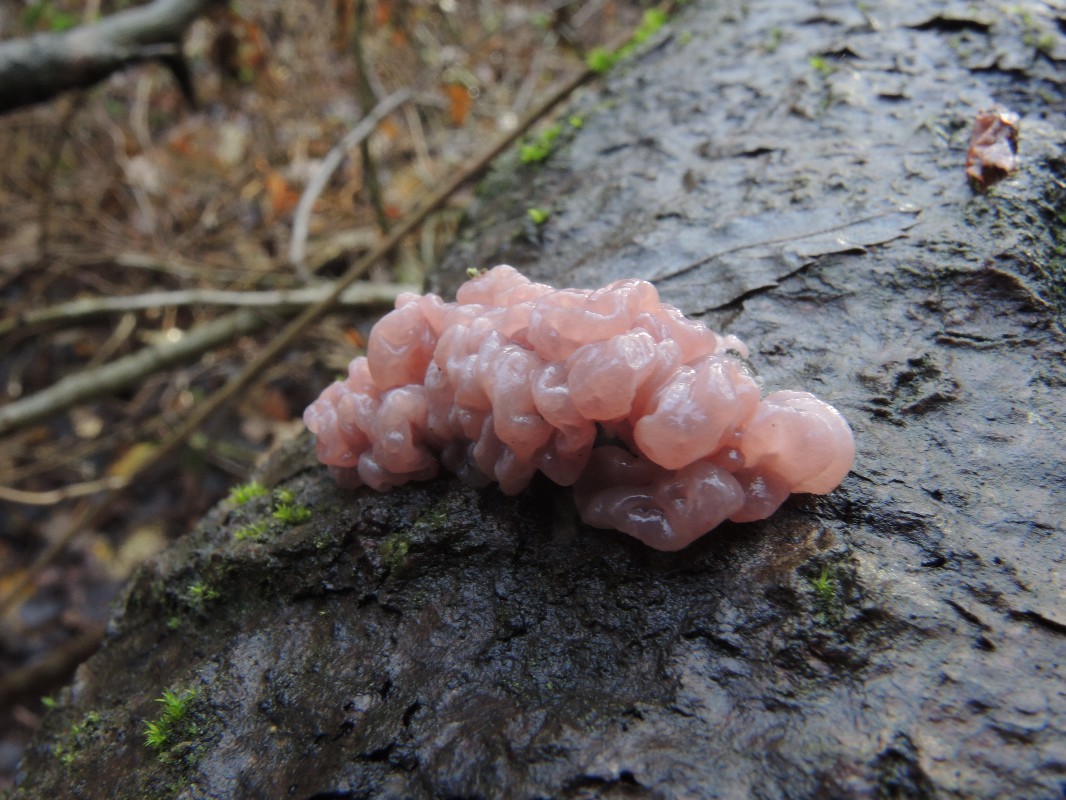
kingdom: Fungi
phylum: Ascomycota
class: Leotiomycetes
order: Helotiales
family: Gelatinodiscaceae
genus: Ascotremella
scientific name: Ascotremella faginea
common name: hjerne-bævreskive
